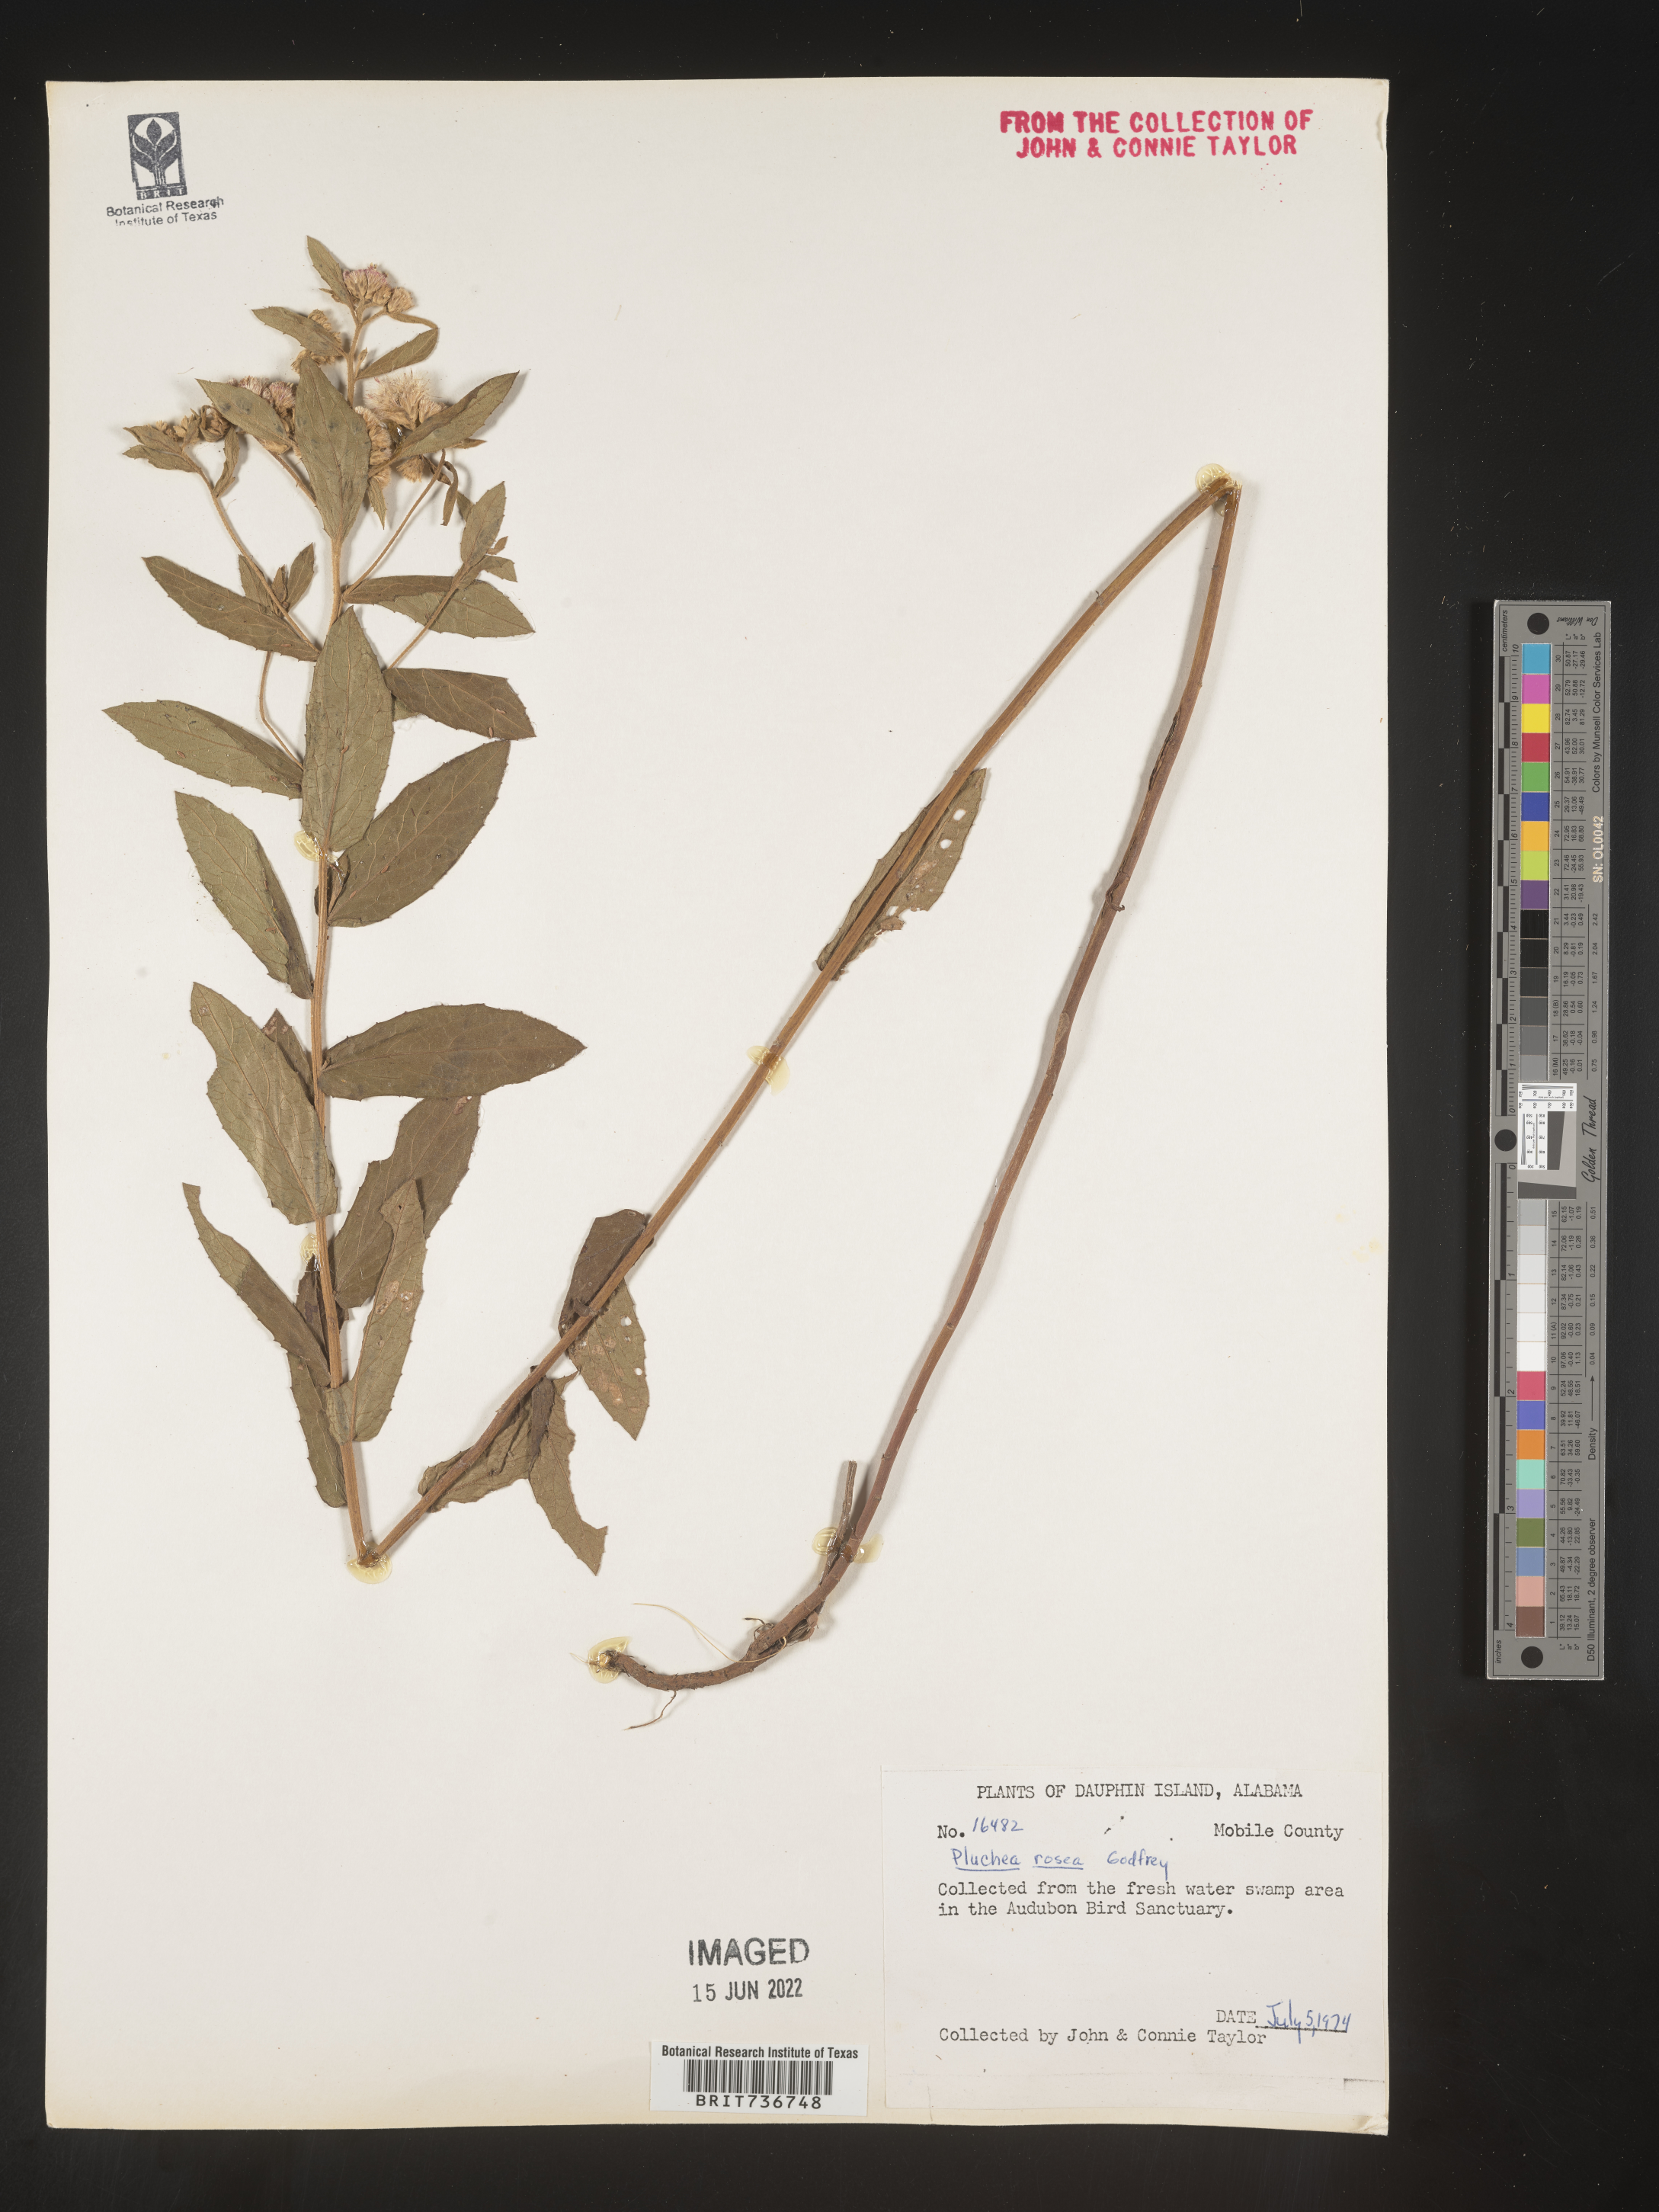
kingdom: Plantae
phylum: Tracheophyta
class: Magnoliopsida
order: Asterales
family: Asteraceae
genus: Pluchea
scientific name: Pluchea baccharis
